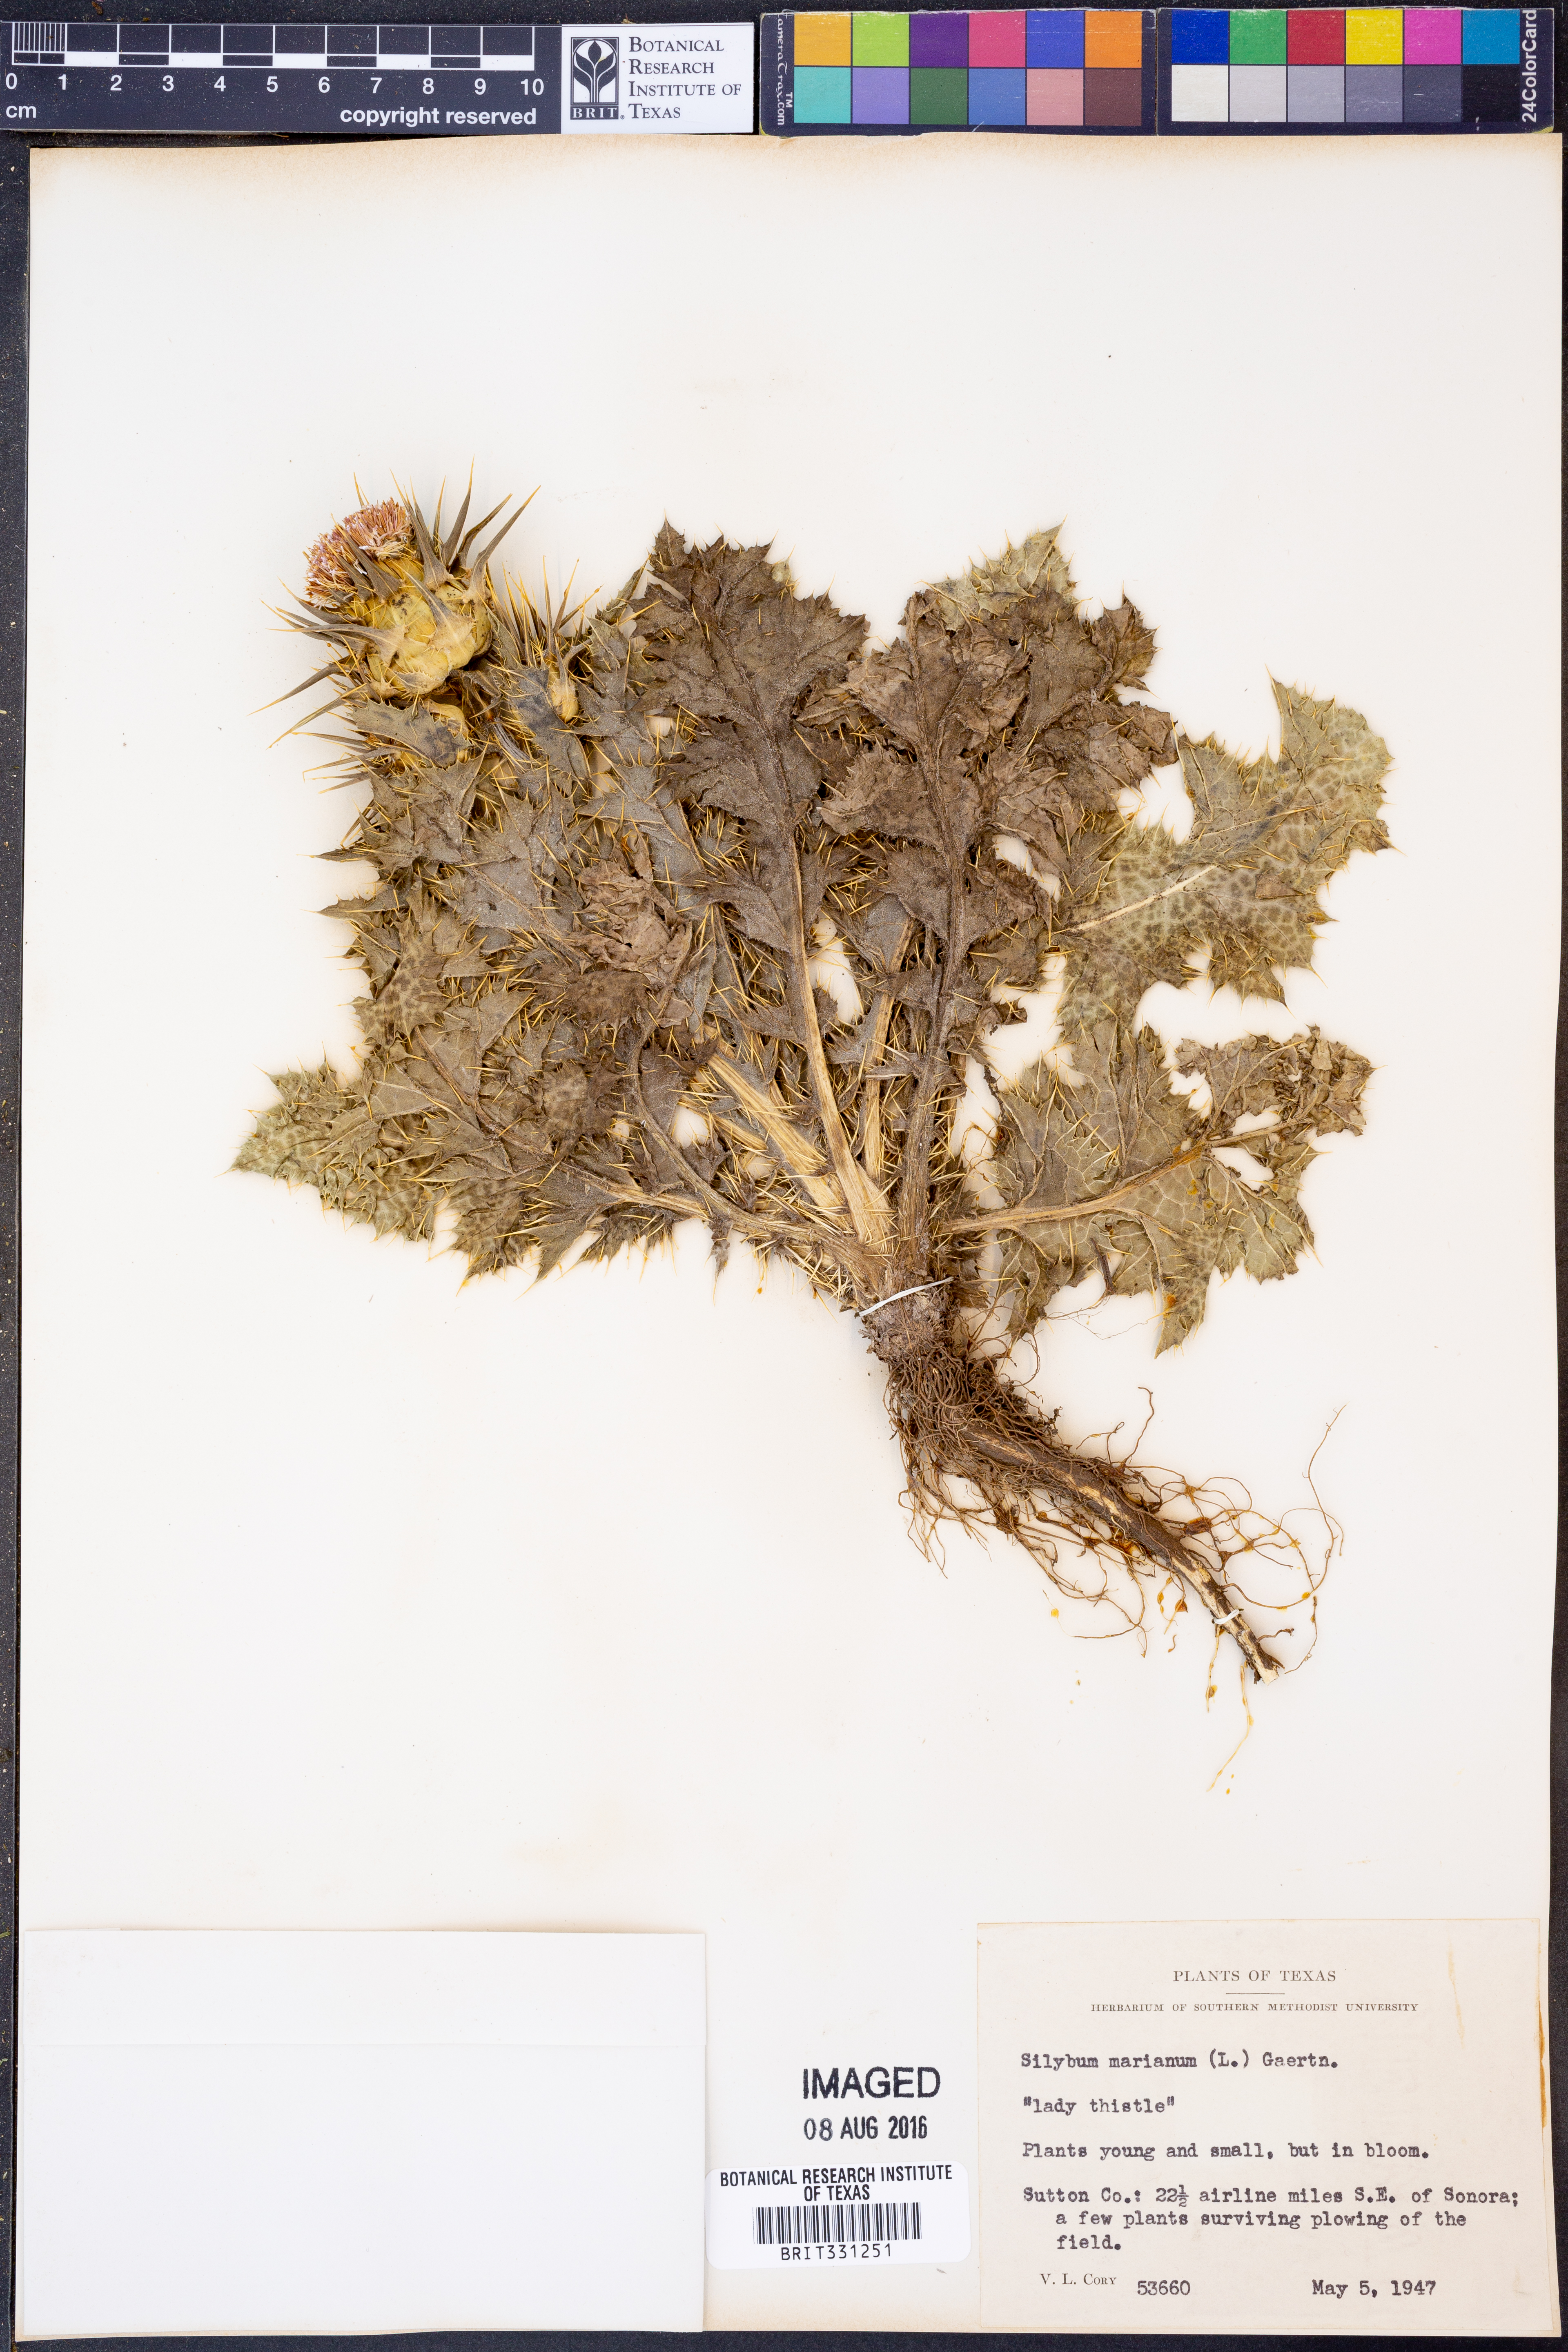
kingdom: Plantae
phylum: Tracheophyta
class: Magnoliopsida
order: Asterales
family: Asteraceae
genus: Silybum
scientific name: Silybum marianum
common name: Milk thistle
